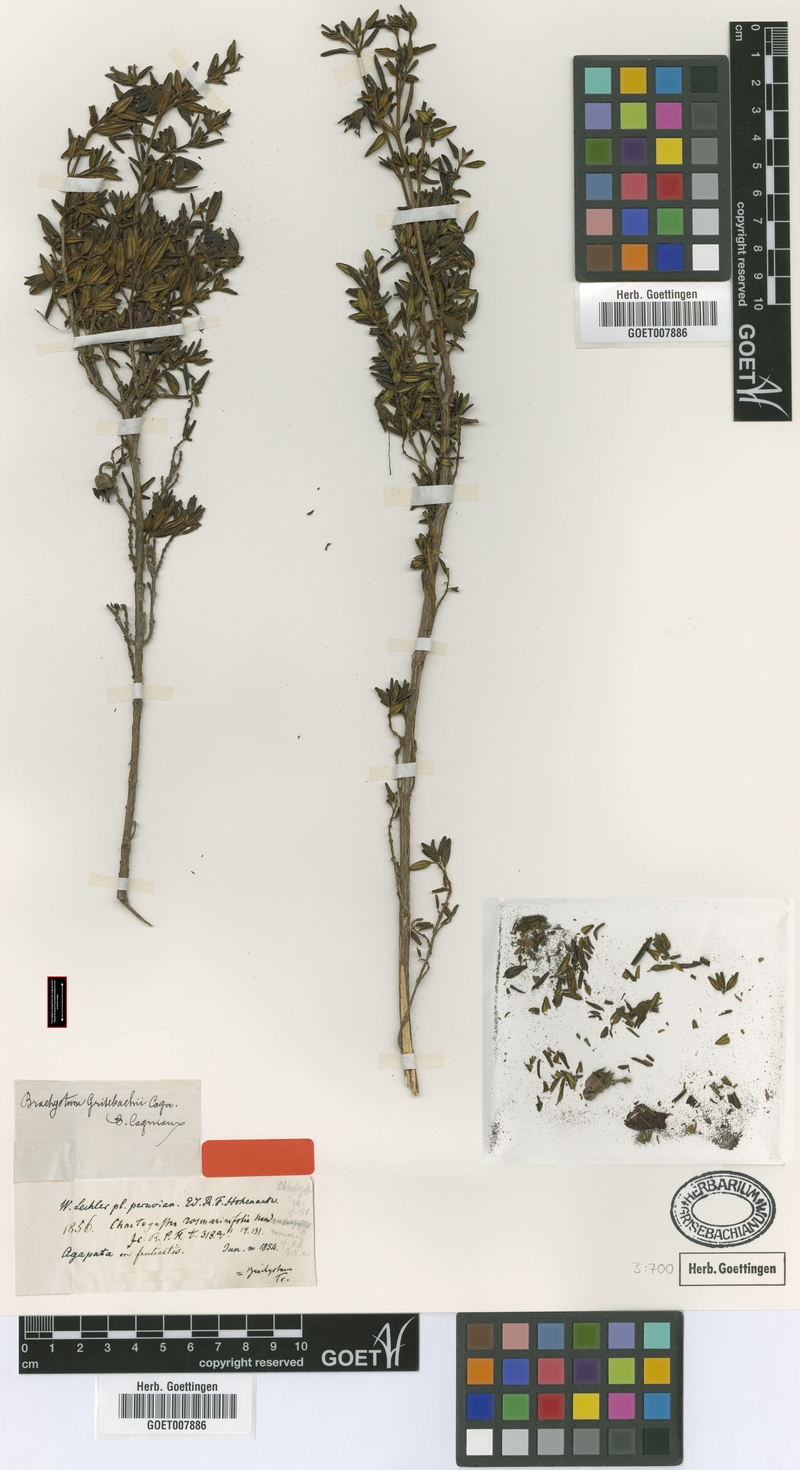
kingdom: Plantae
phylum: Tracheophyta
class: Magnoliopsida
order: Myrtales
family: Melastomataceae
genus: Brachyotum
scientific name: Brachyotum grisebachii
